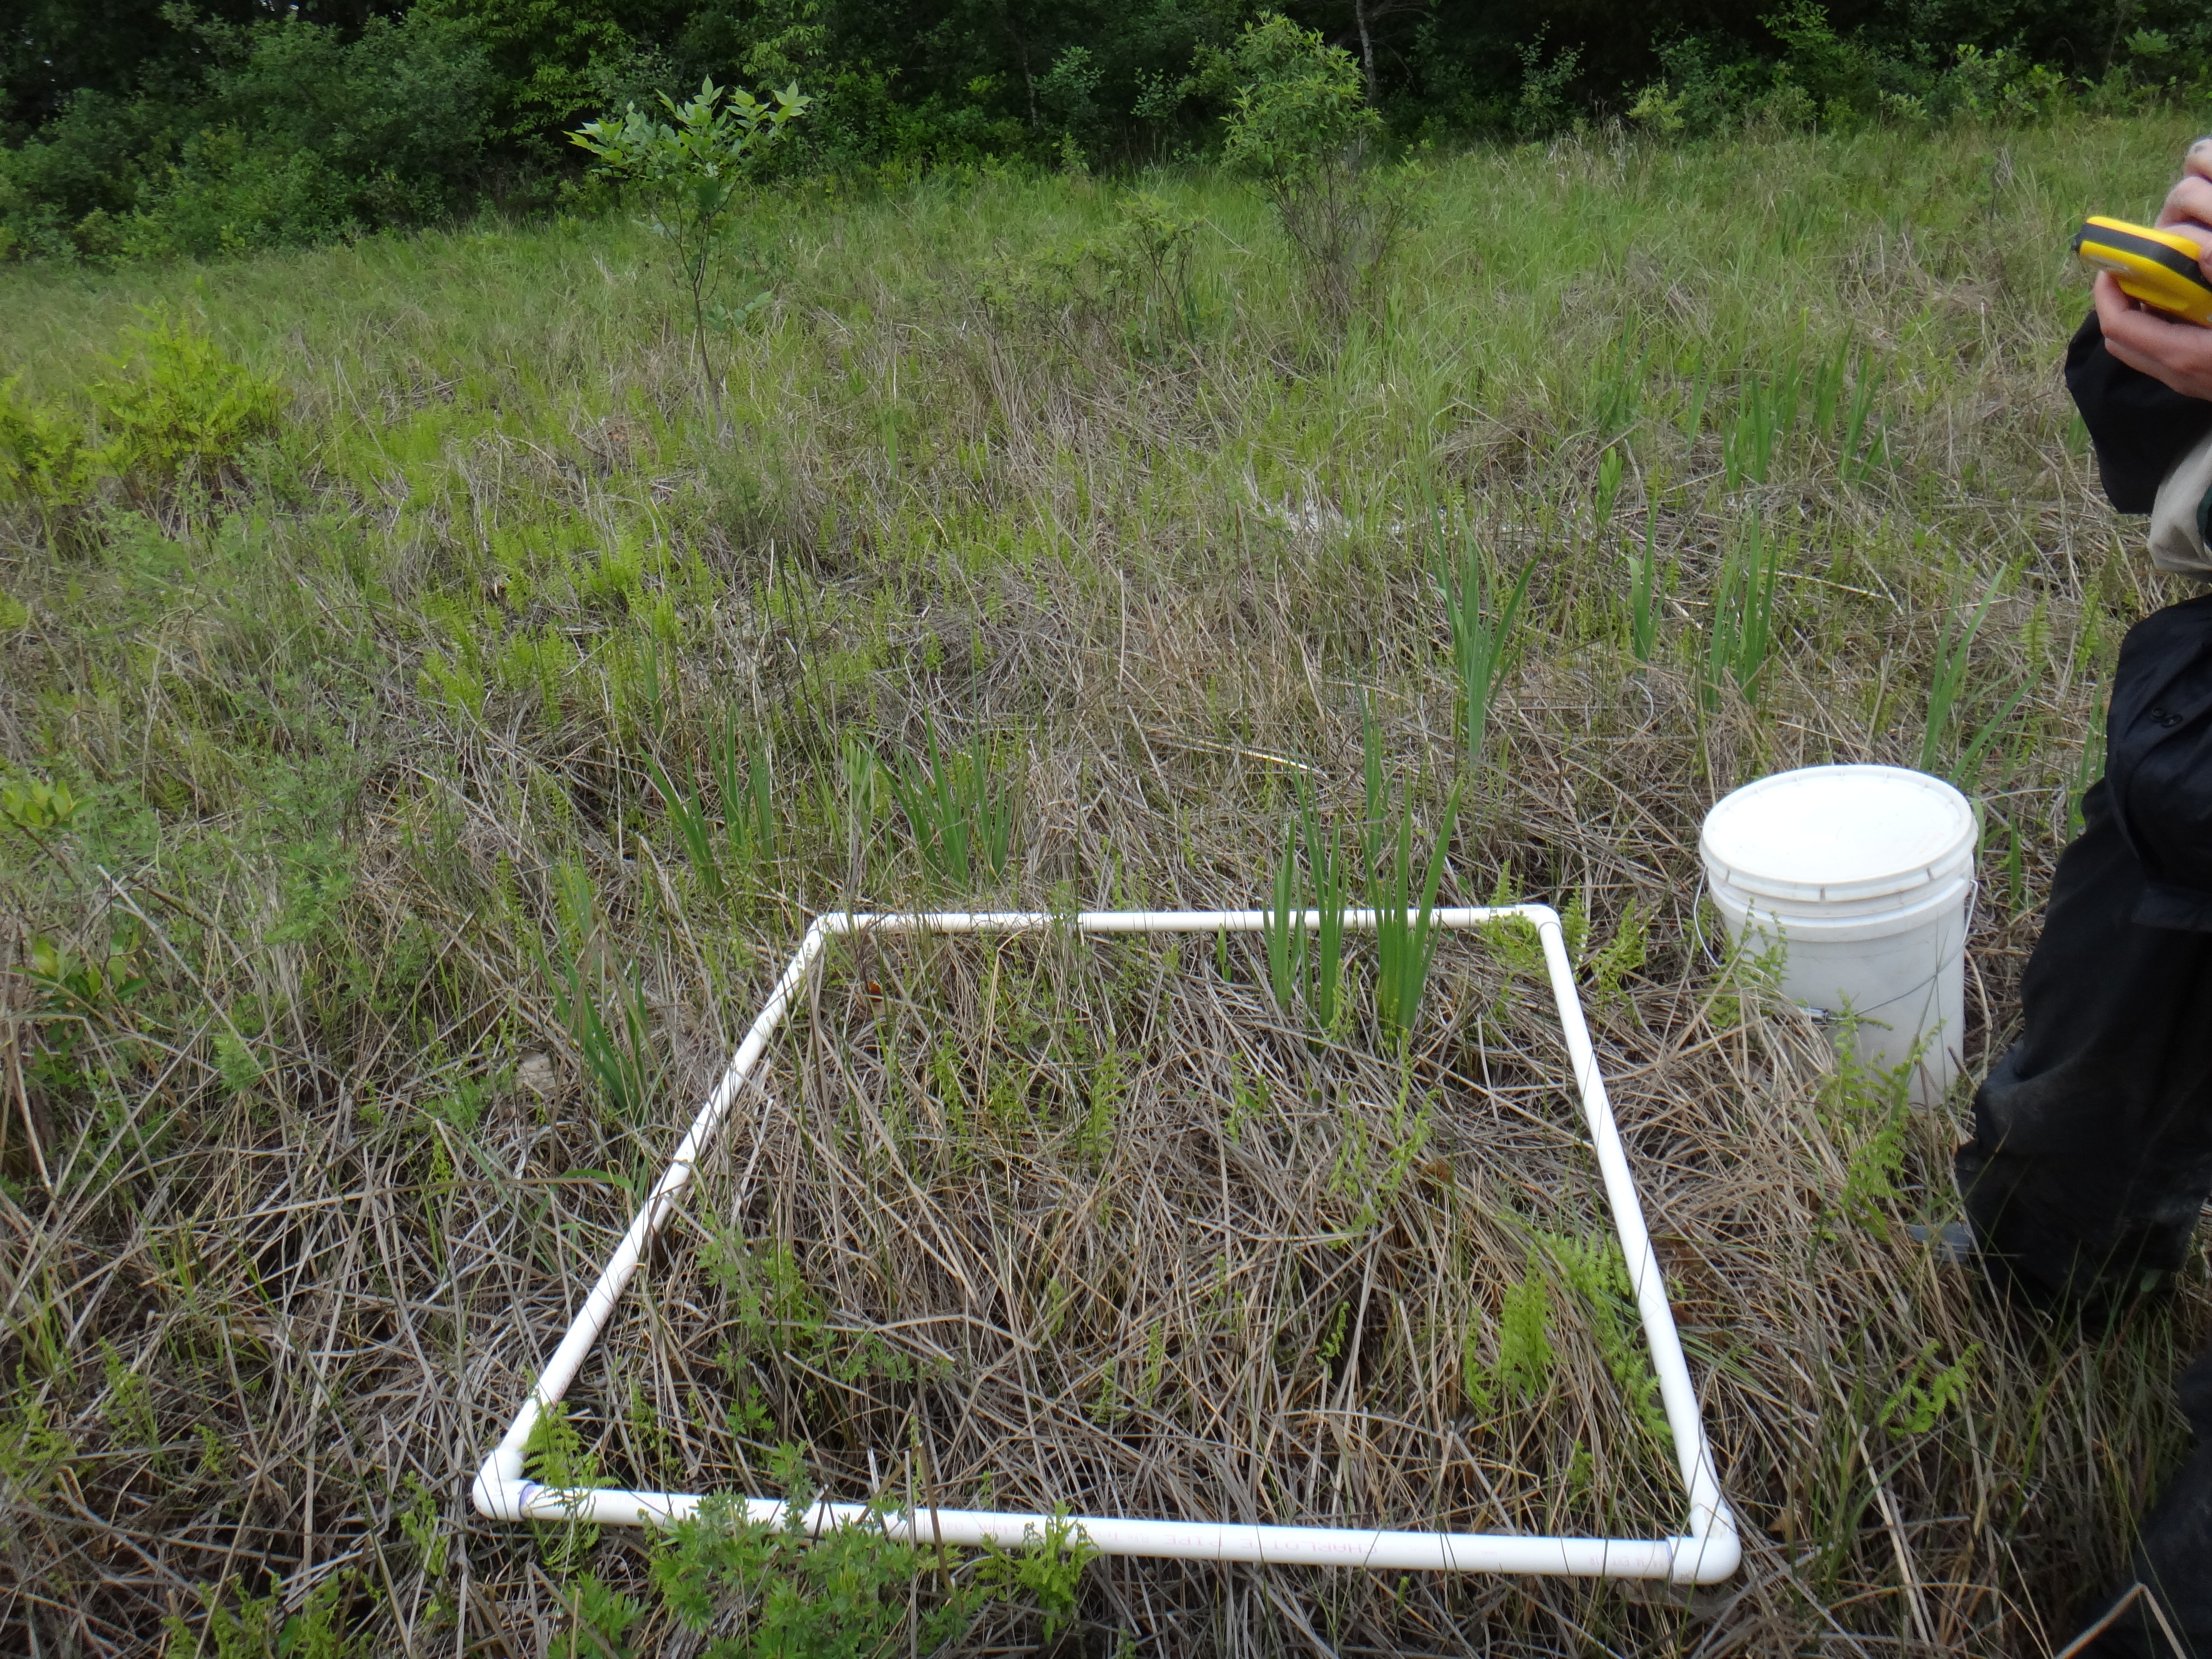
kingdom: Plantae
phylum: Tracheophyta
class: Liliopsida
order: Poales
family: Cyperaceae
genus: Schoenoplectus
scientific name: Schoenoplectus pungens
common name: Sharp club-rush
